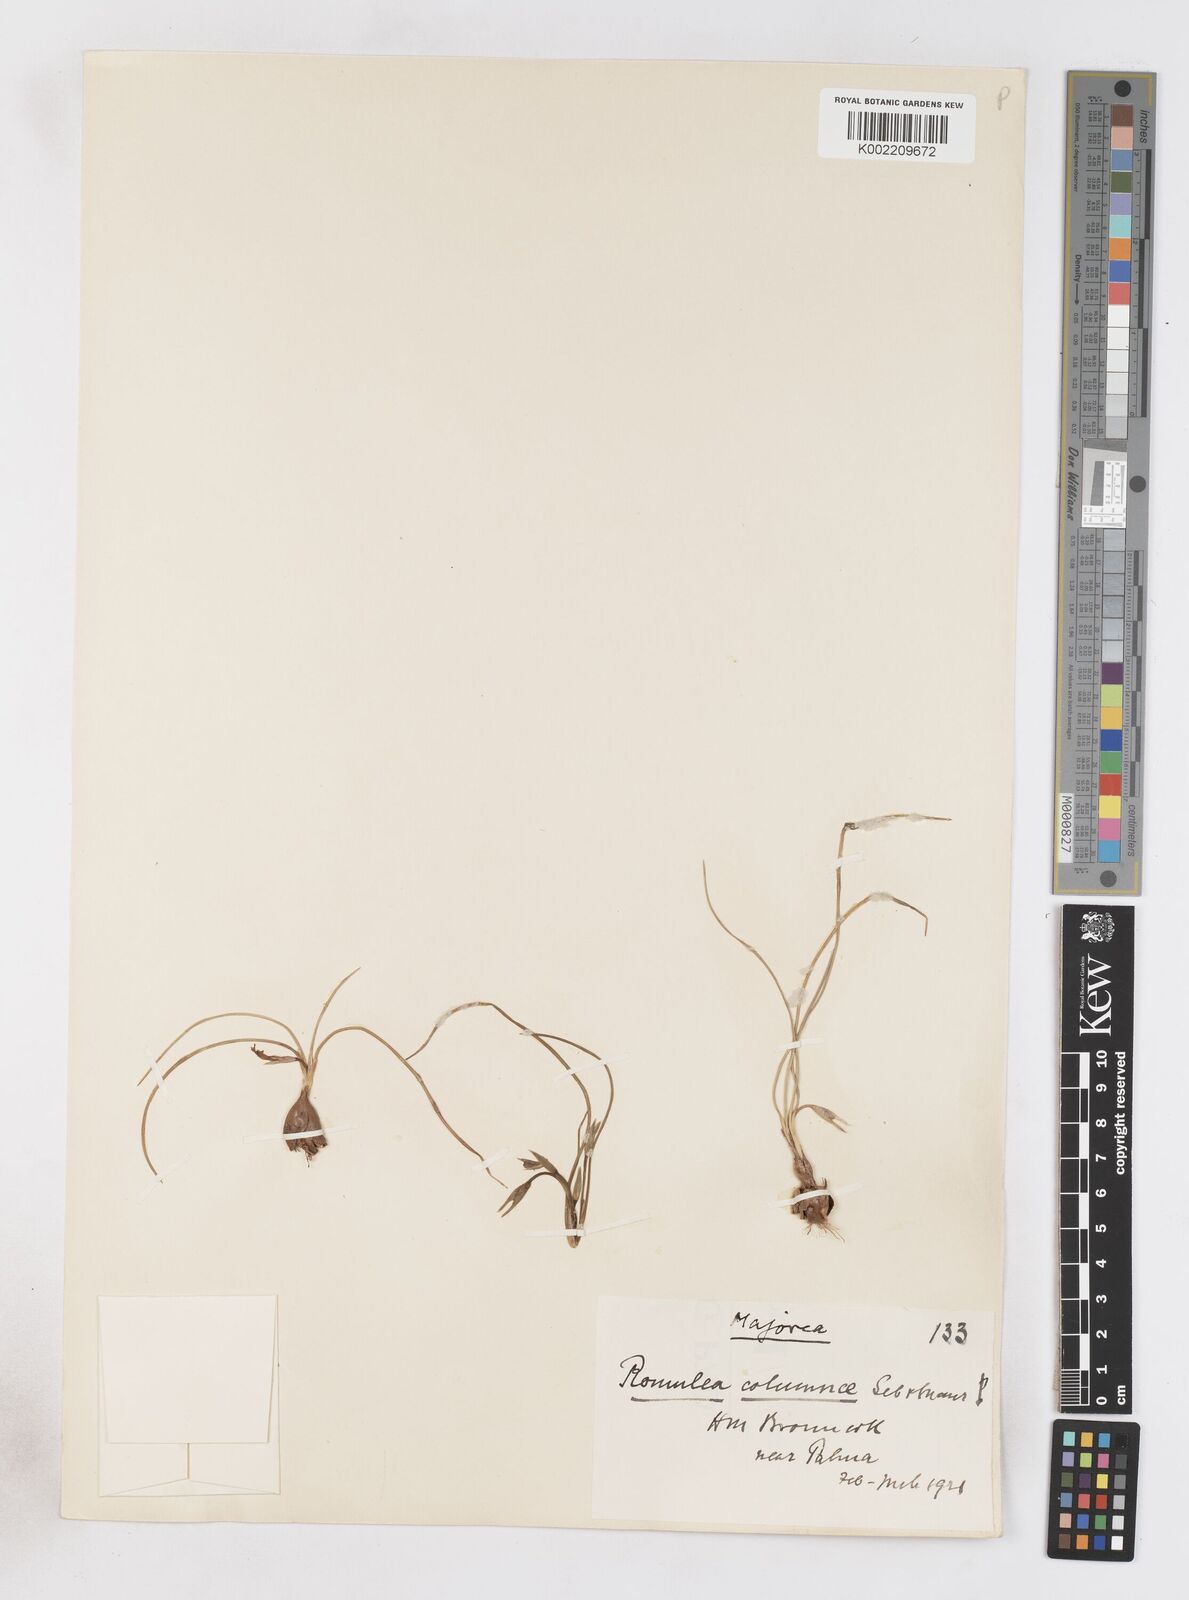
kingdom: Plantae
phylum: Tracheophyta
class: Liliopsida
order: Asparagales
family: Iridaceae
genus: Romulea
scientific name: Romulea ramiflora
